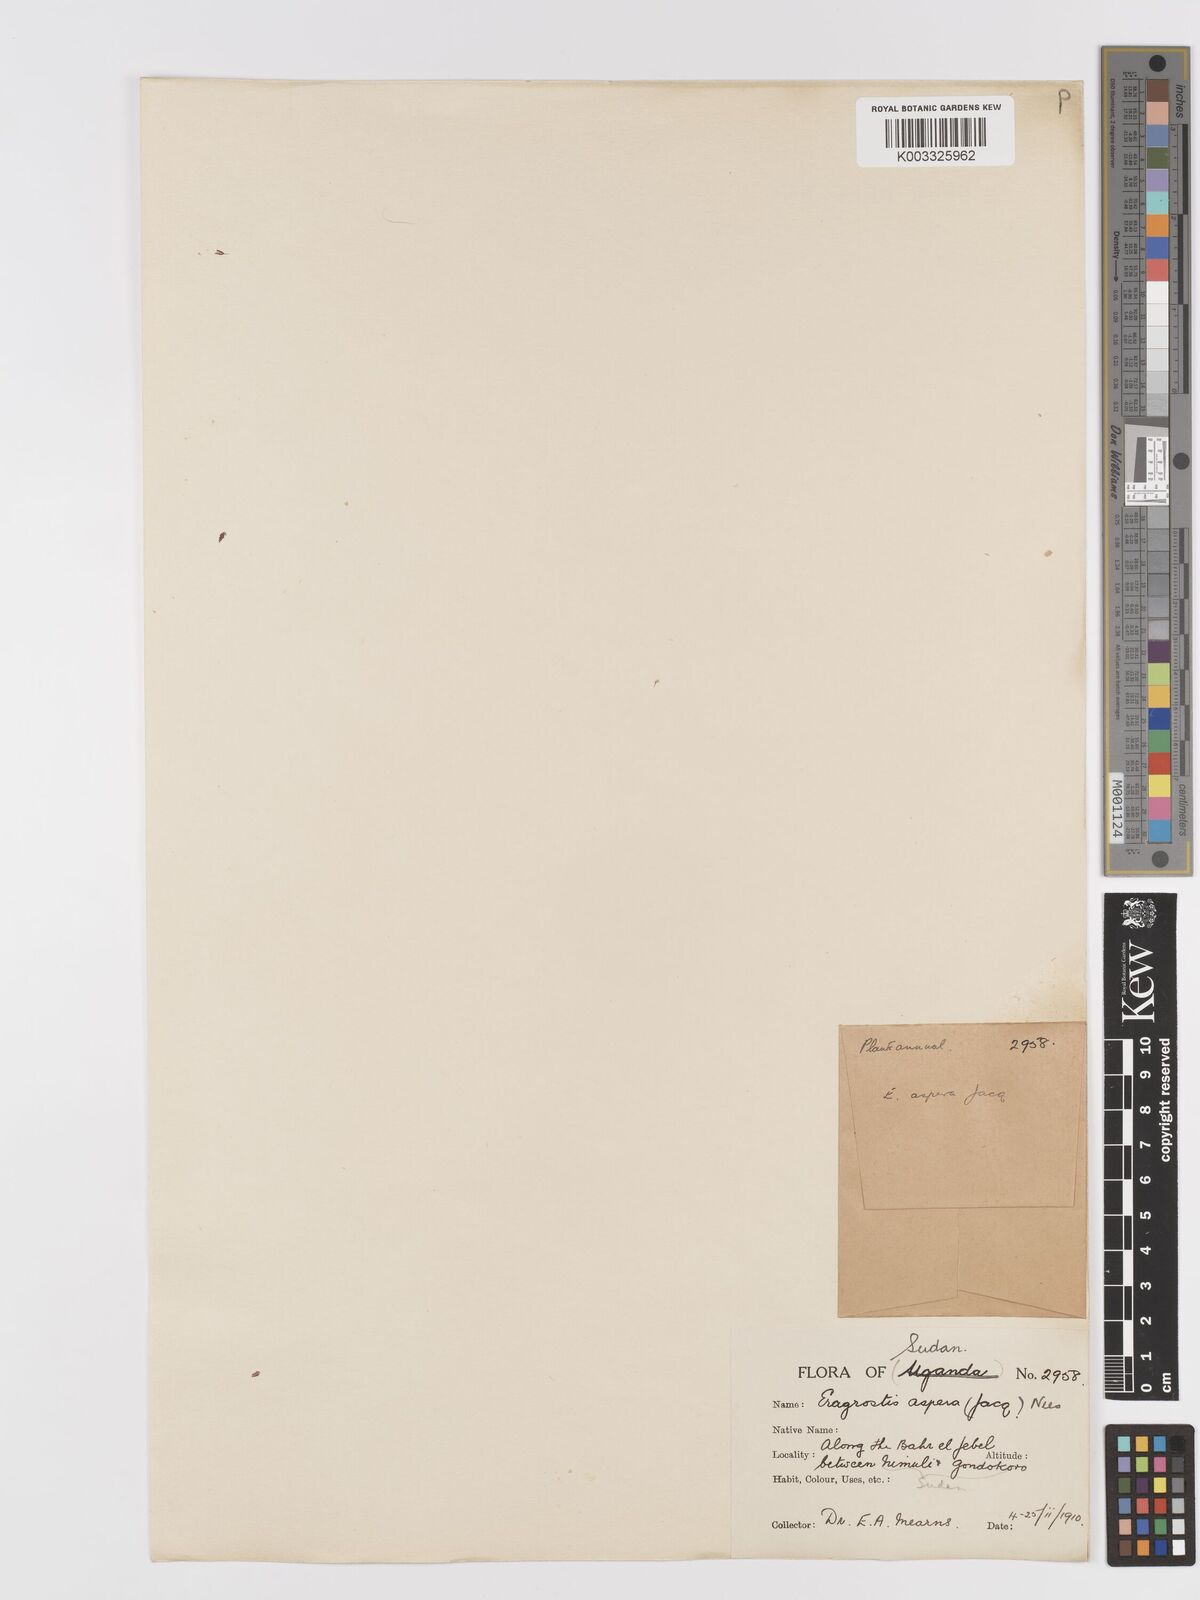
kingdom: Plantae
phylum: Tracheophyta
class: Liliopsida
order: Poales
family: Poaceae
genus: Eragrostis
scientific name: Eragrostis aspera
